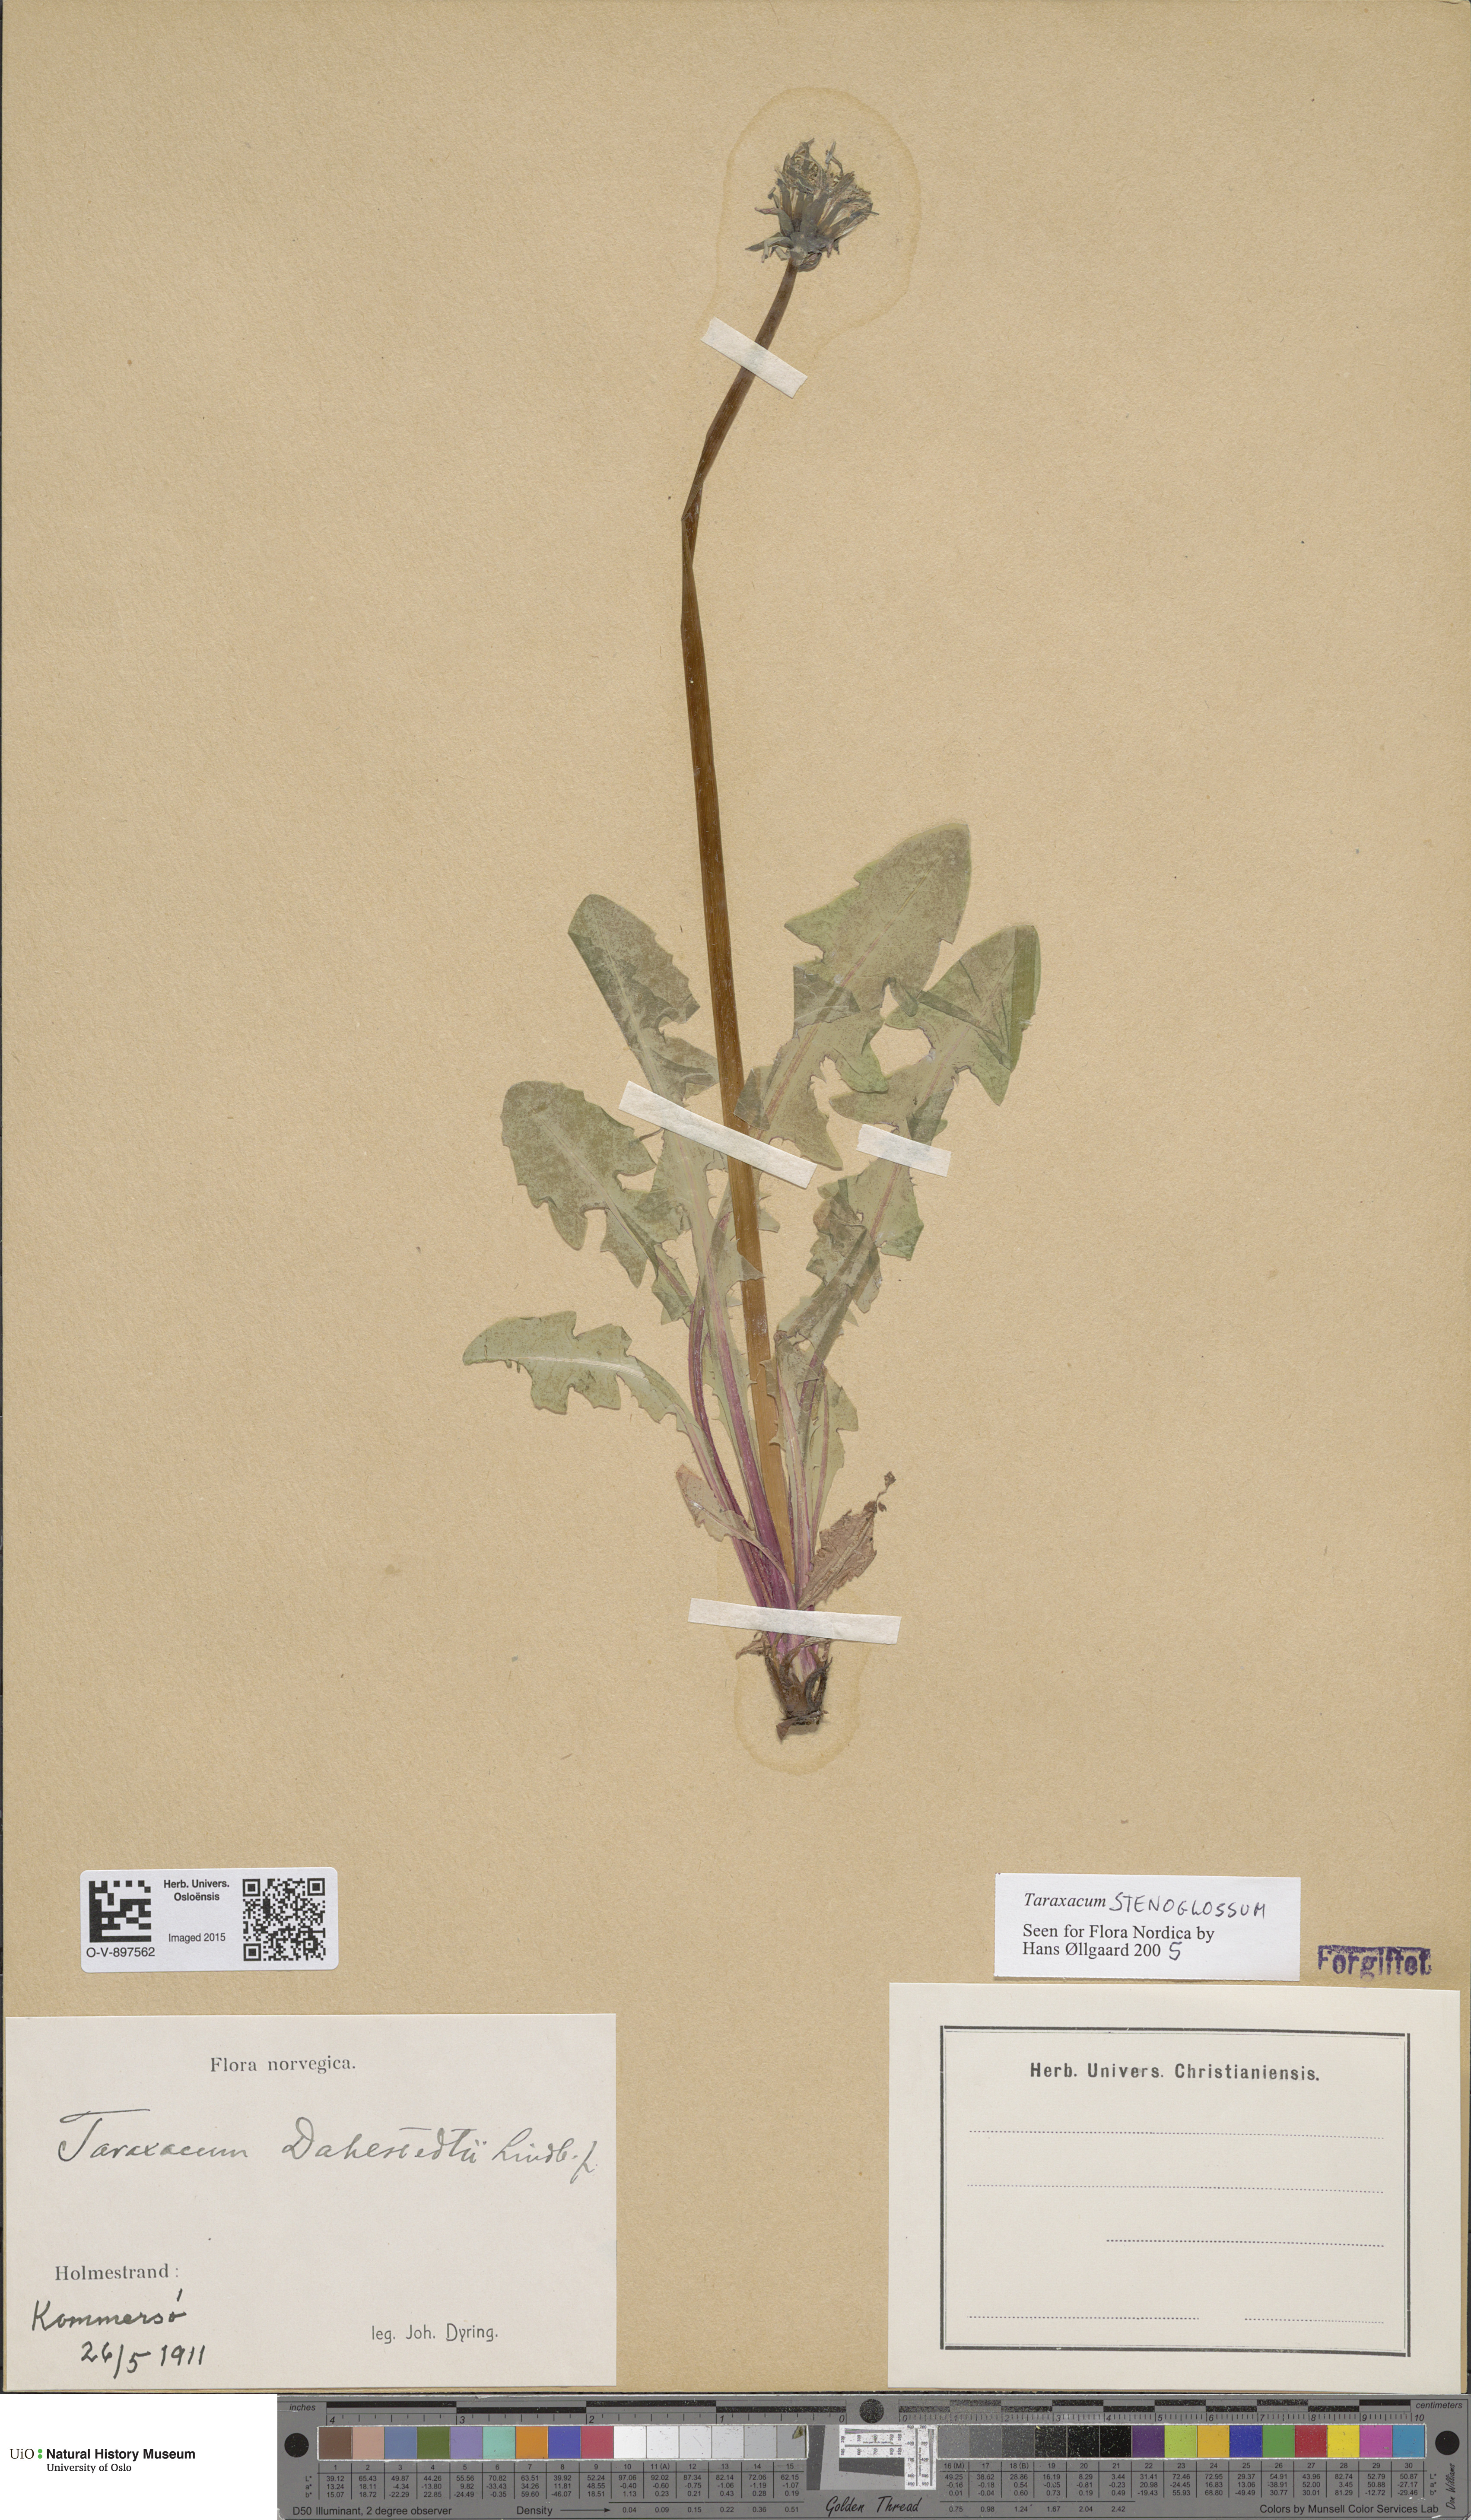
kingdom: Plantae
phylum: Tracheophyta
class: Magnoliopsida
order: Asterales
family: Asteraceae
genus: Taraxacum
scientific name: Taraxacum stenoglossum
